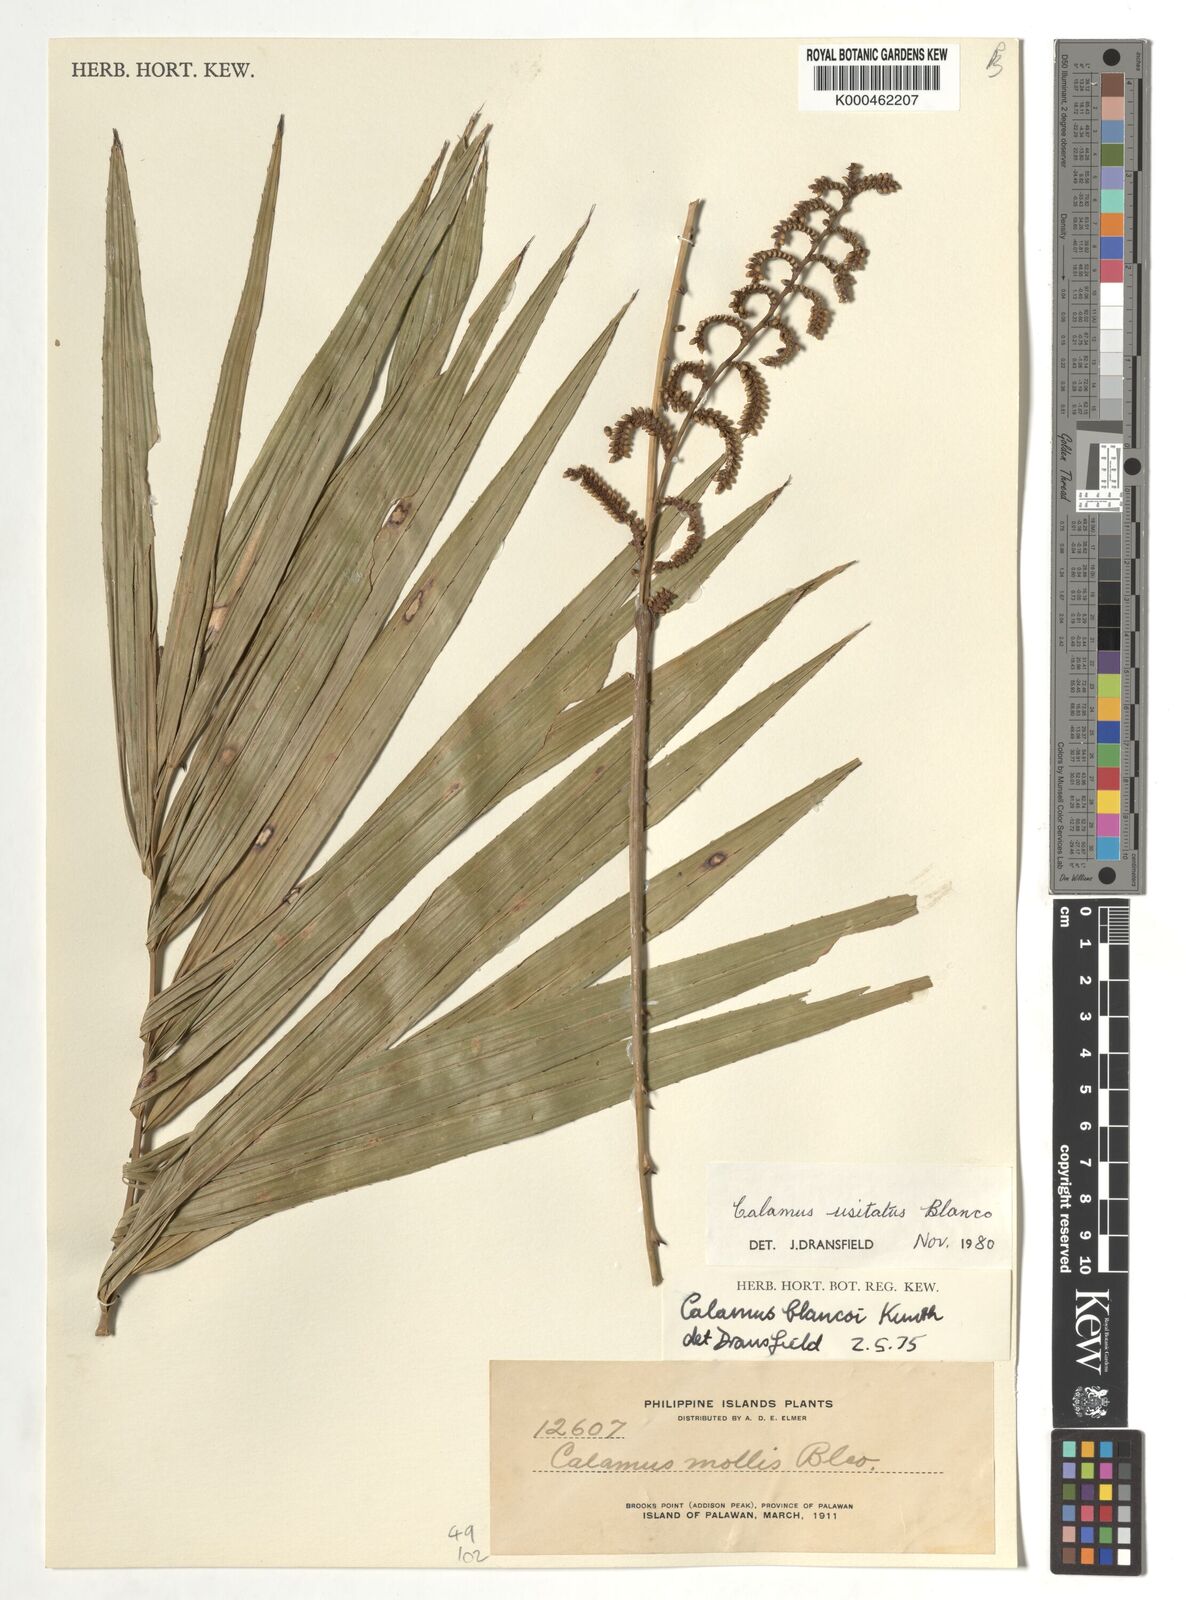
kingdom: Plantae
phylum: Tracheophyta
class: Liliopsida
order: Arecales
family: Arecaceae
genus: Calamus
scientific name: Calamus usitatus
